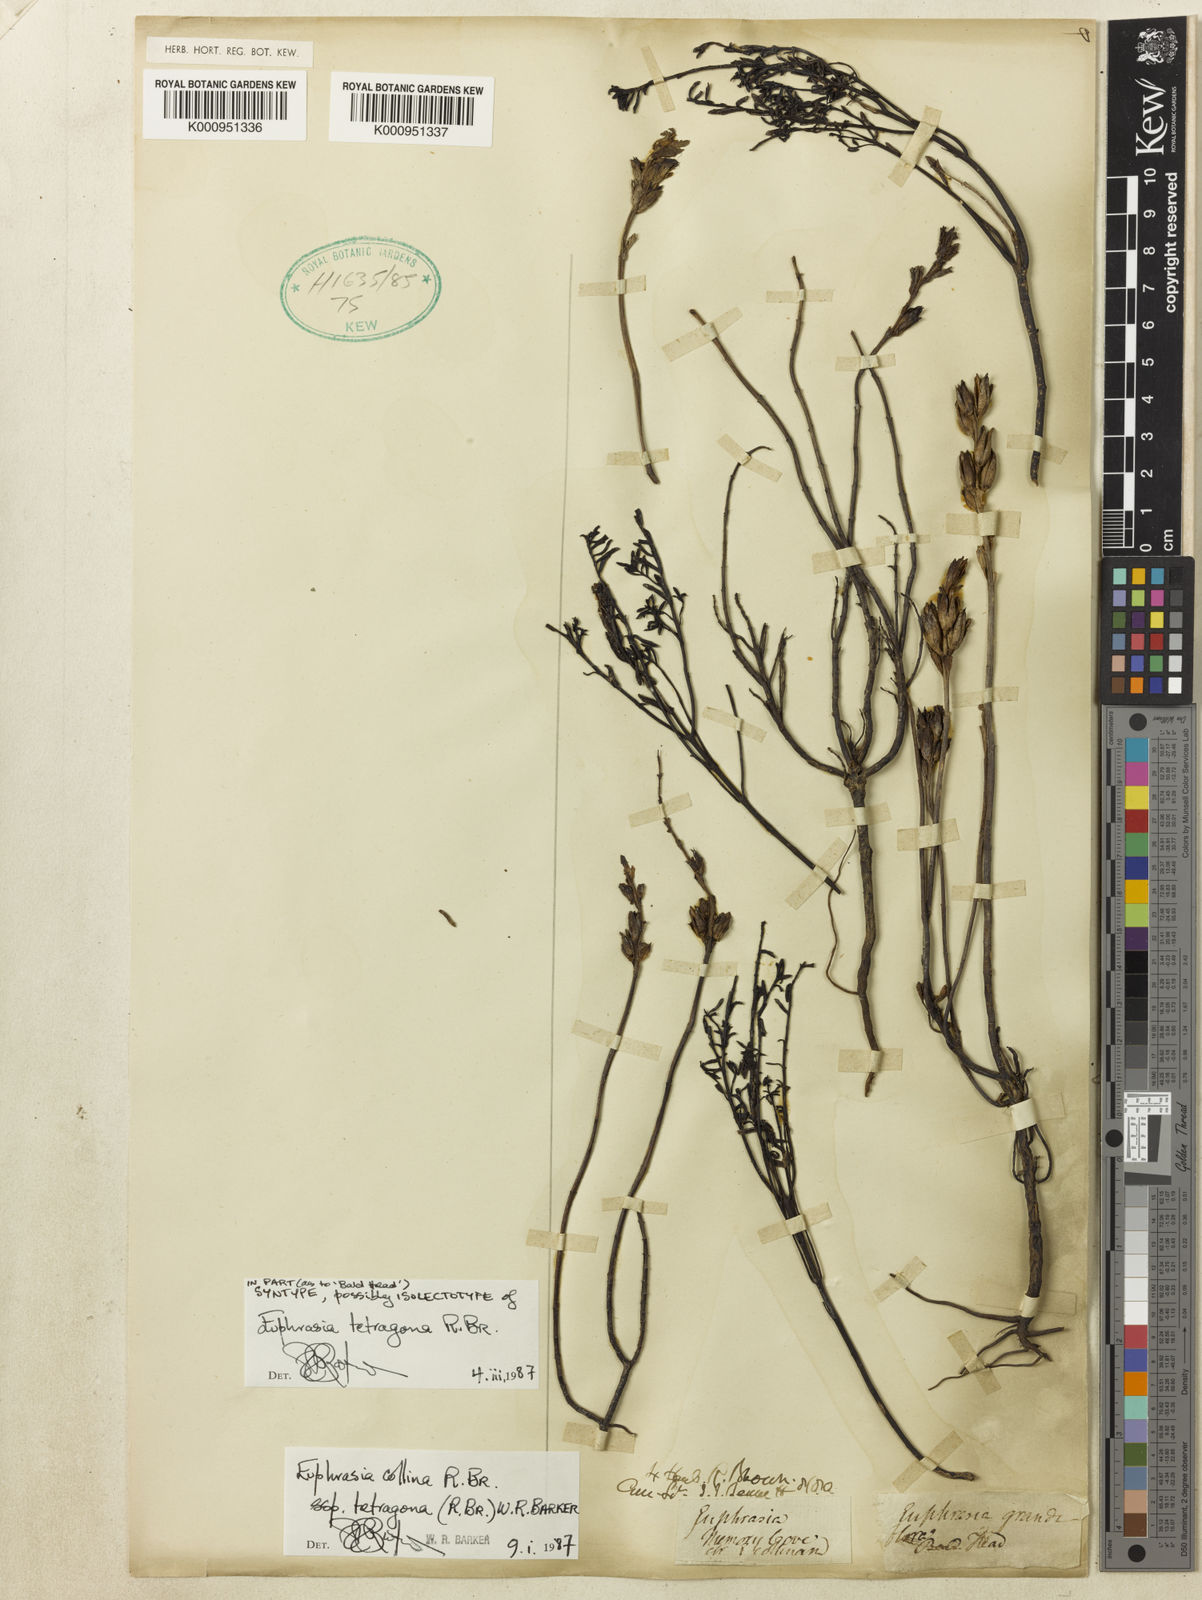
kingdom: Plantae
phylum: Tracheophyta
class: Magnoliopsida
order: Lamiales
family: Orobanchaceae
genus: Euphrasia
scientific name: Euphrasia collina
